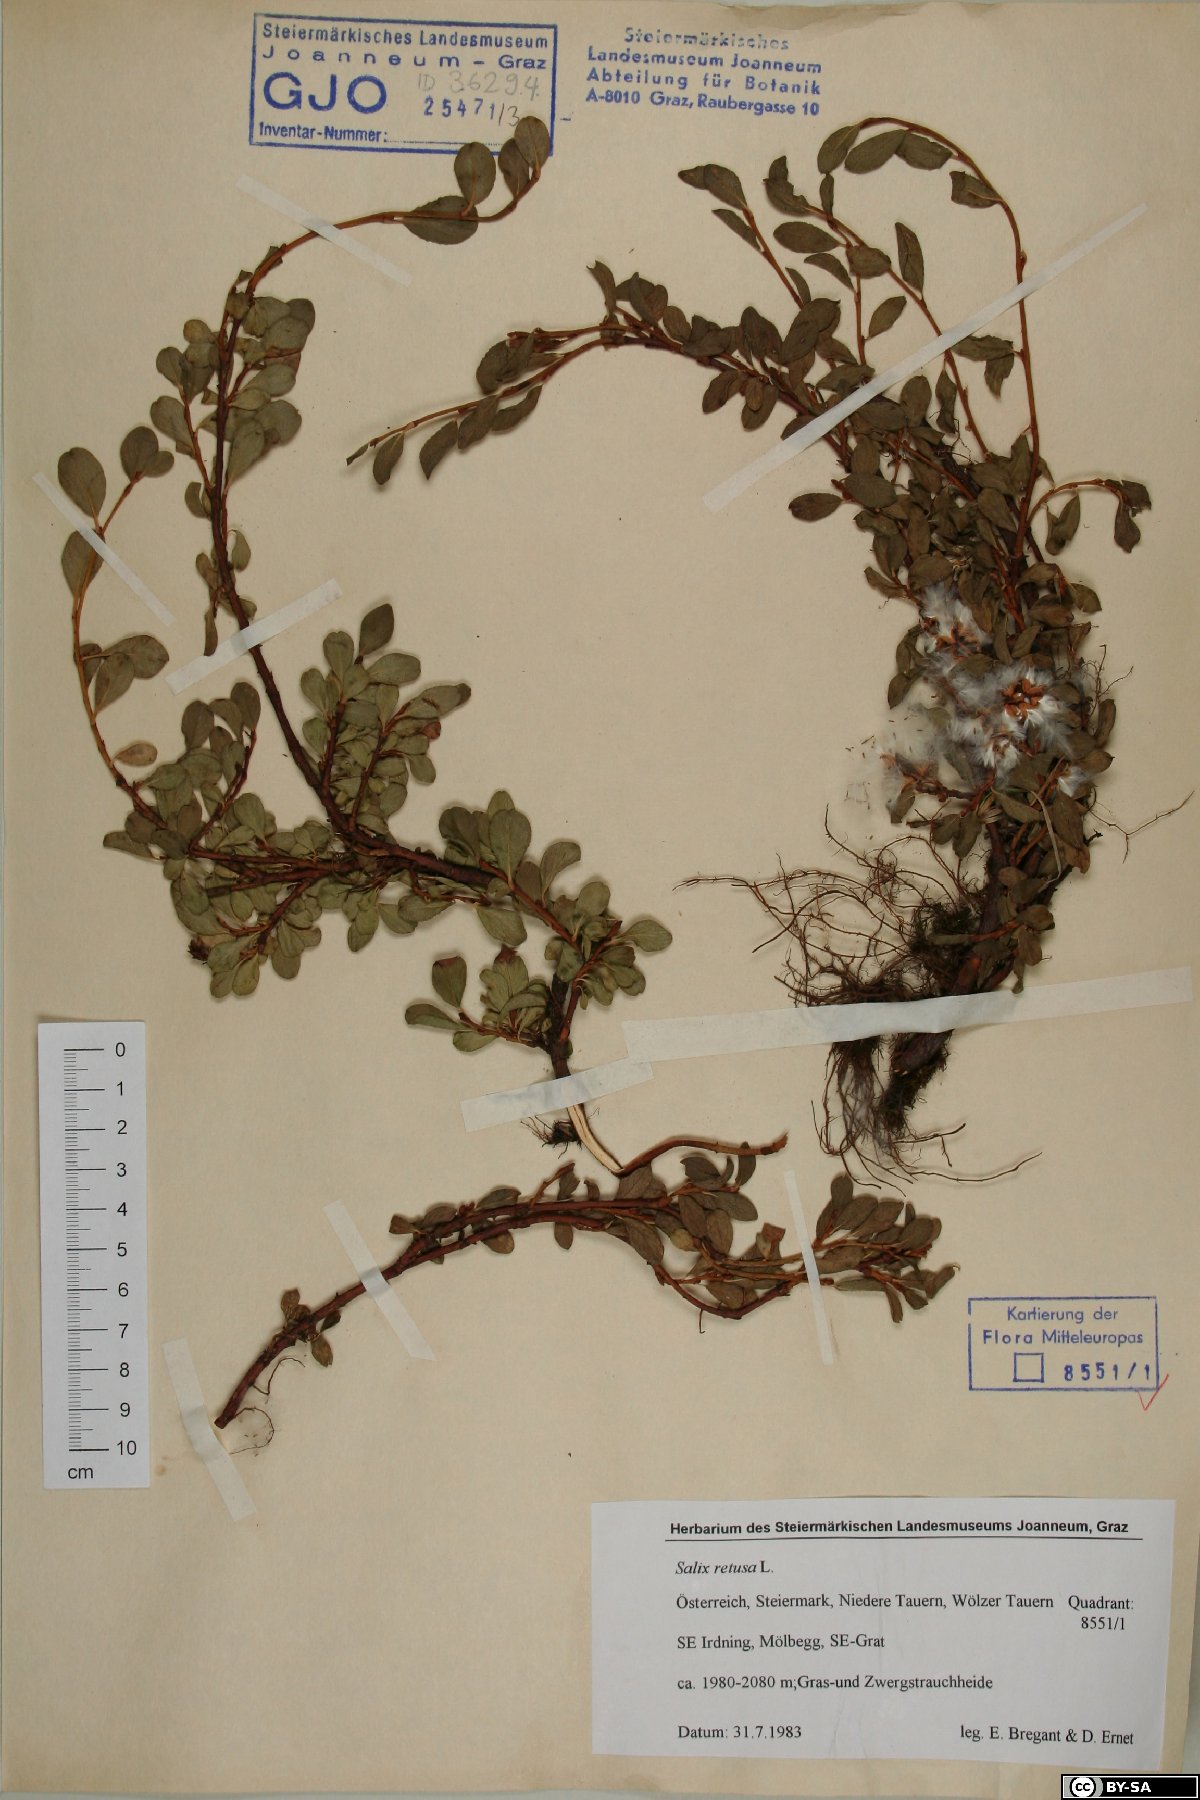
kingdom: Plantae
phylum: Tracheophyta
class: Magnoliopsida
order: Malpighiales
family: Salicaceae
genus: Salix
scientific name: Salix retusa
